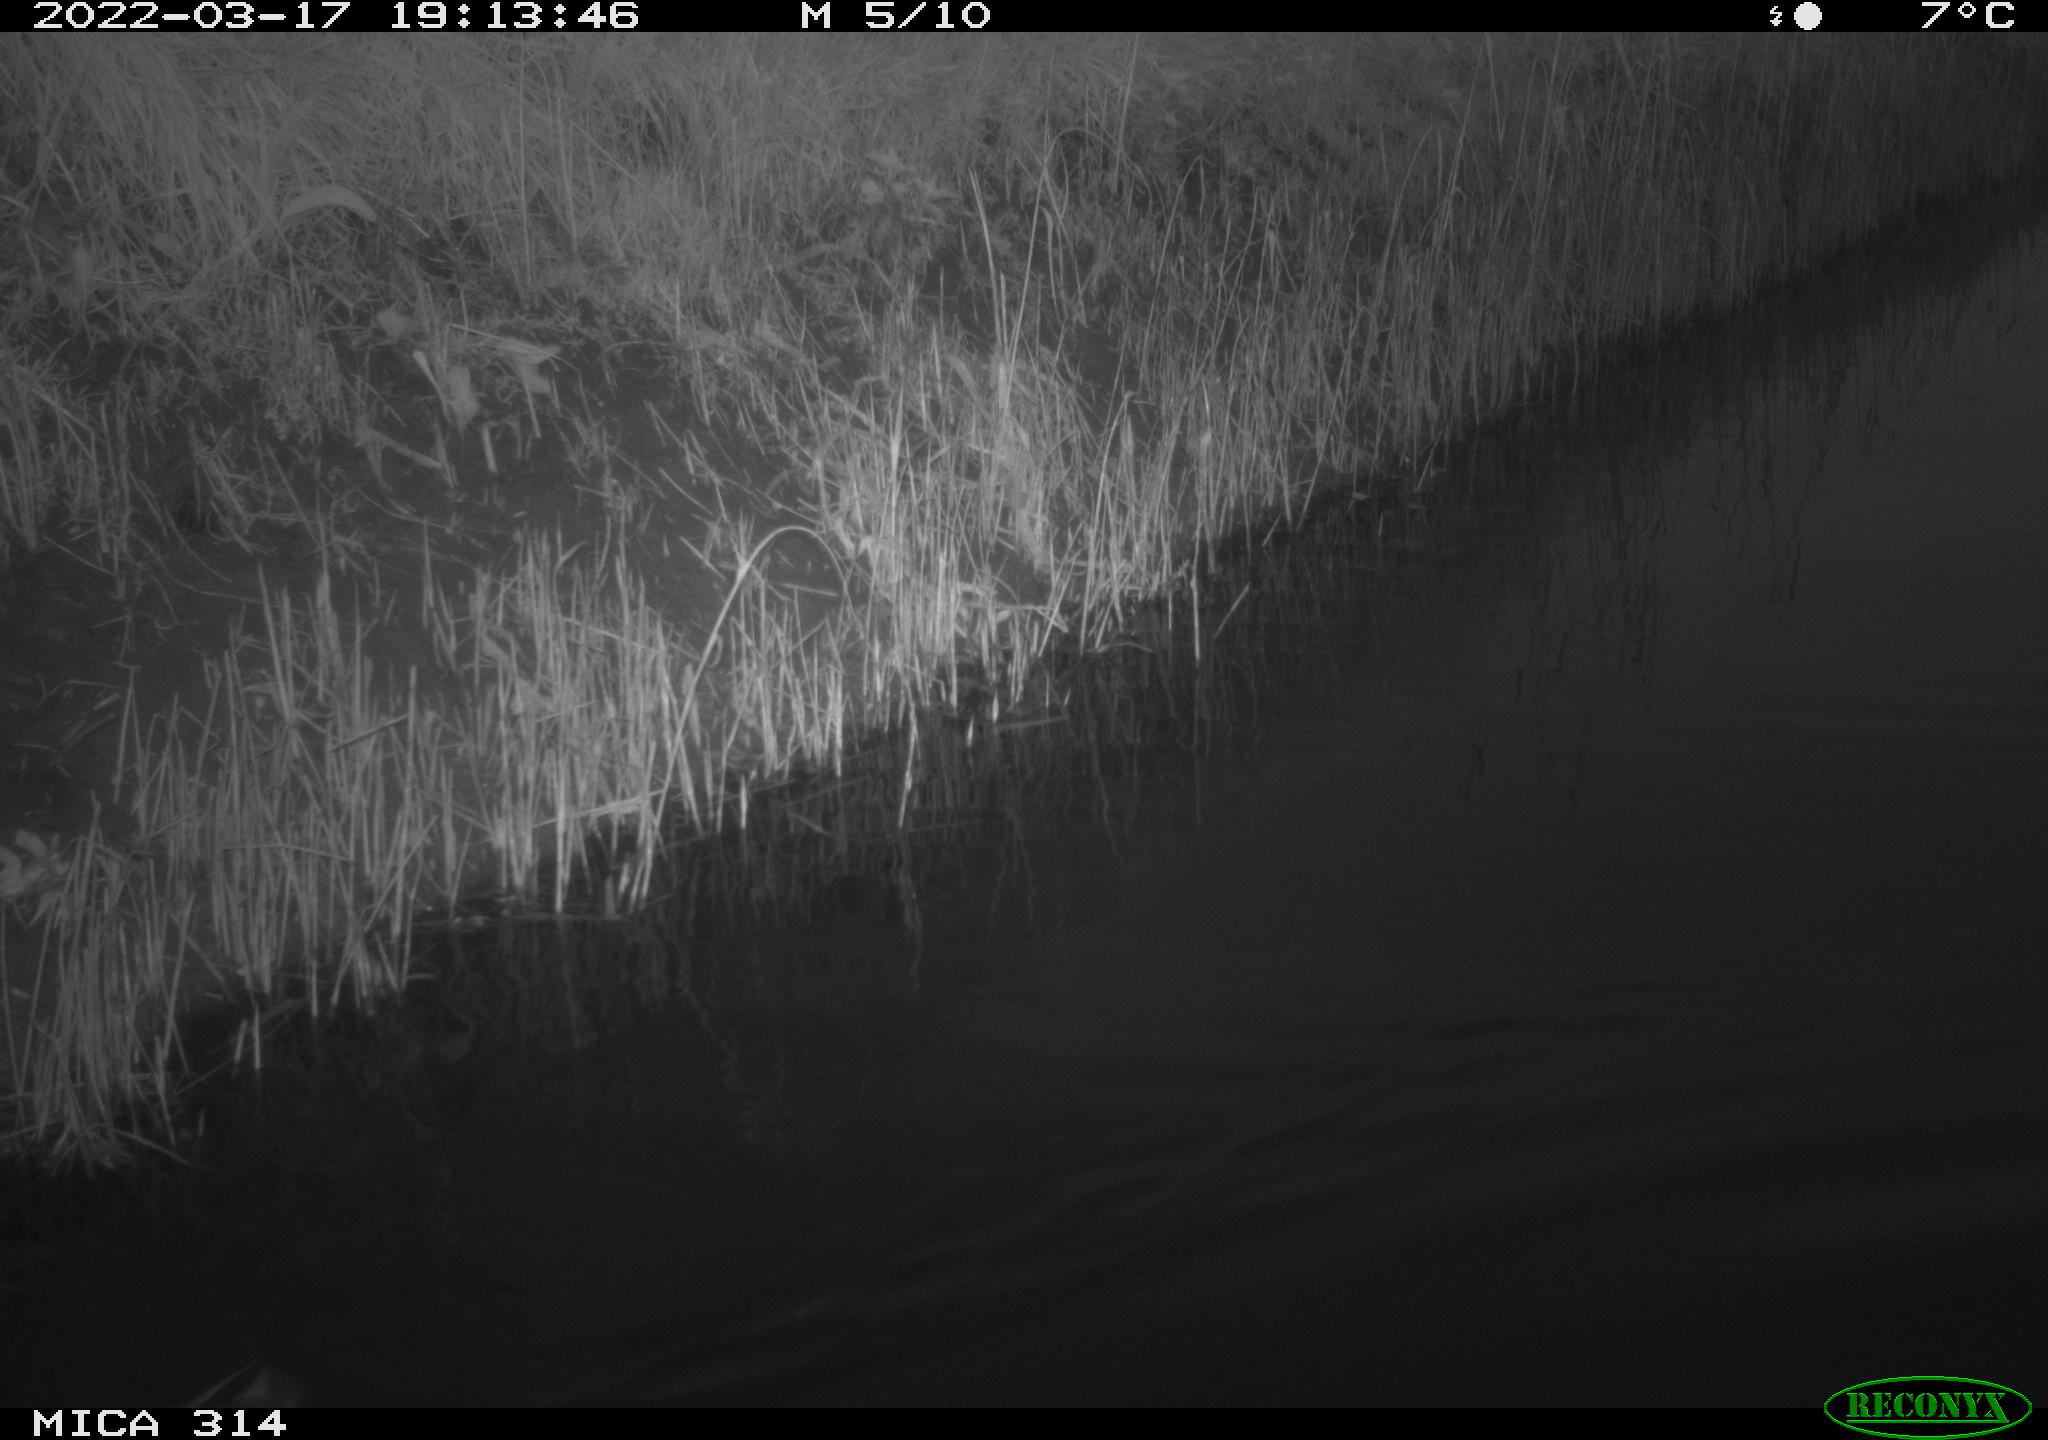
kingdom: Animalia
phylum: Chordata
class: Aves
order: Gruiformes
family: Rallidae
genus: Gallinula
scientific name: Gallinula chloropus
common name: Common moorhen
